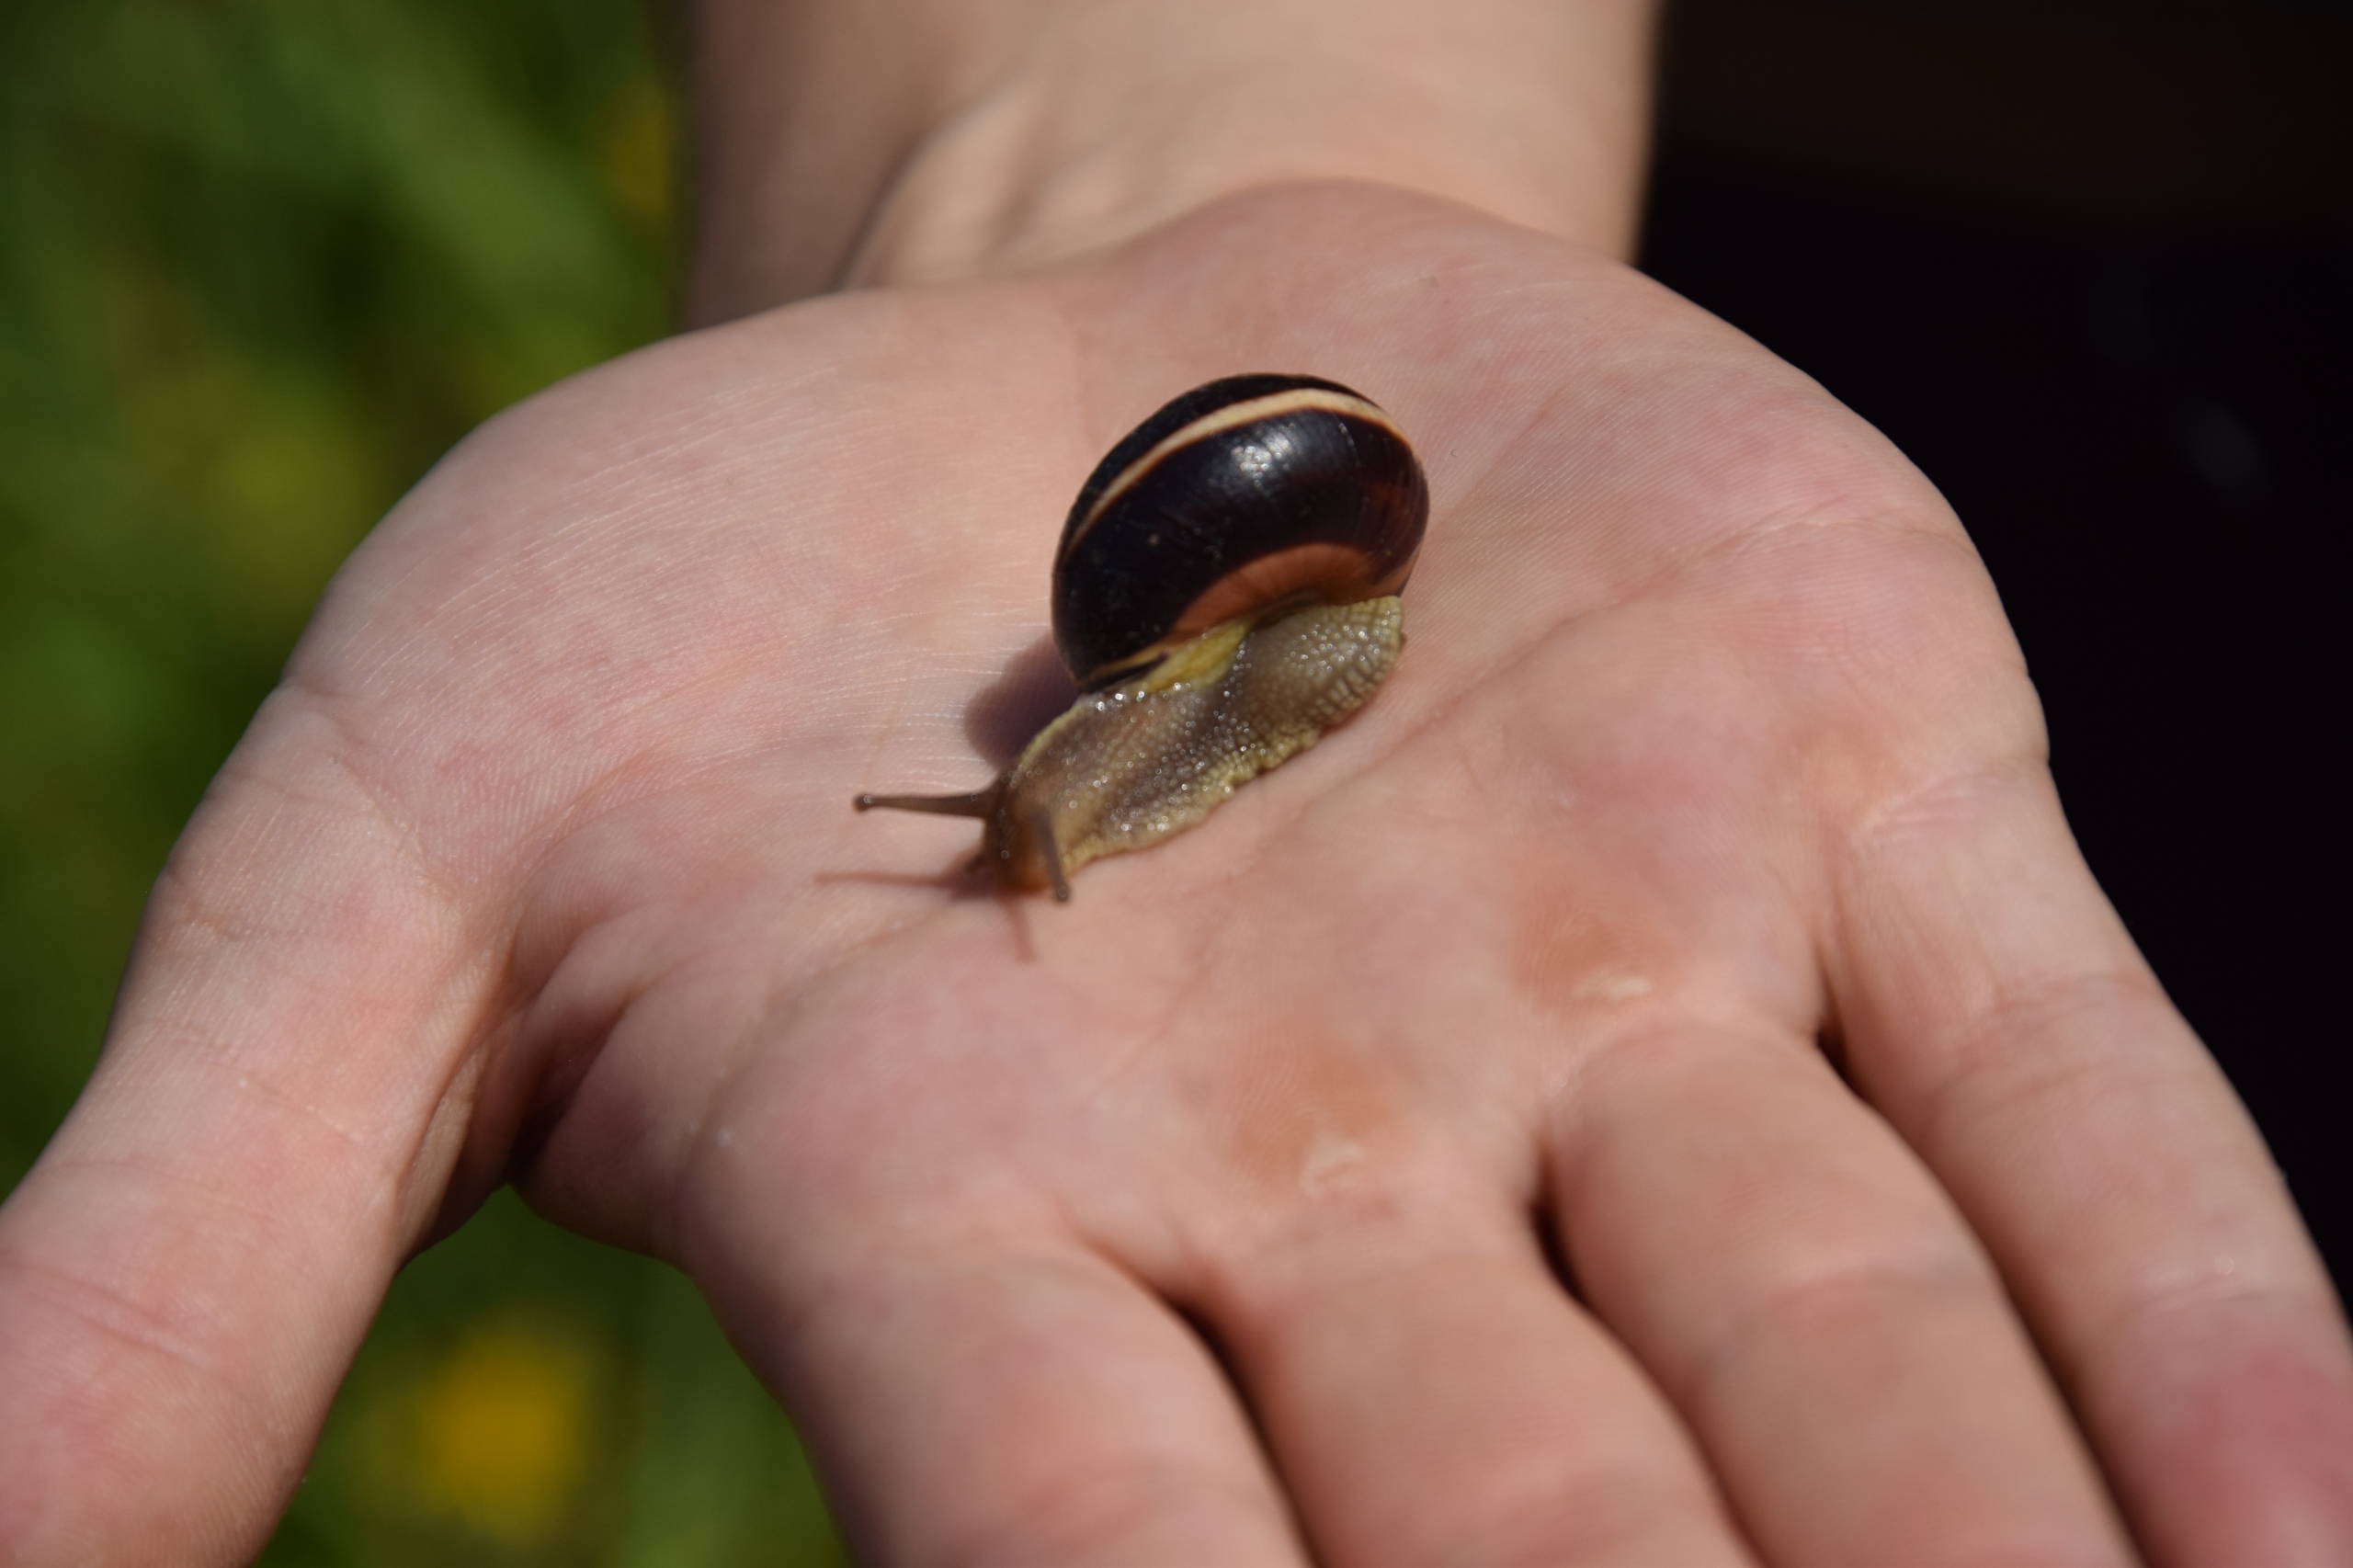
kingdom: Animalia
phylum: Mollusca
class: Gastropoda
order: Stylommatophora
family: Helicidae
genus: Cepaea
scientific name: Cepaea nemoralis
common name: Lundsnegl
